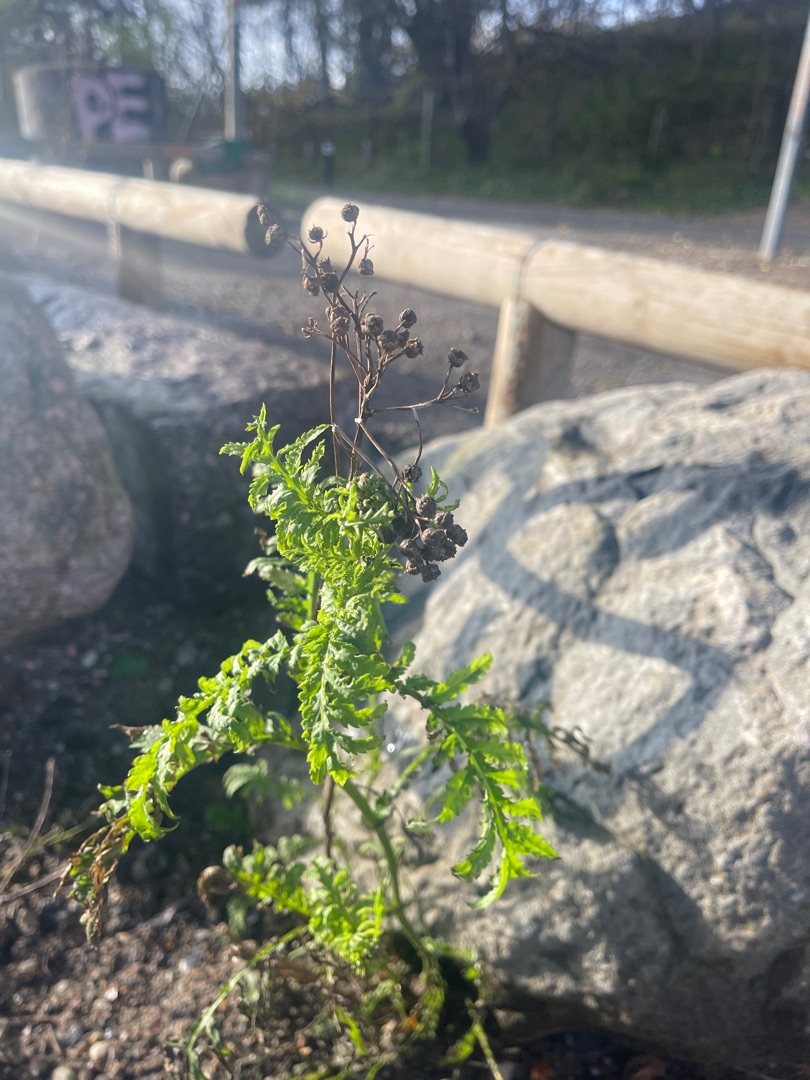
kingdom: Plantae
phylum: Tracheophyta
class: Magnoliopsida
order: Asterales
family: Asteraceae
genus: Tanacetum
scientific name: Tanacetum vulgare
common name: Rejnfan
